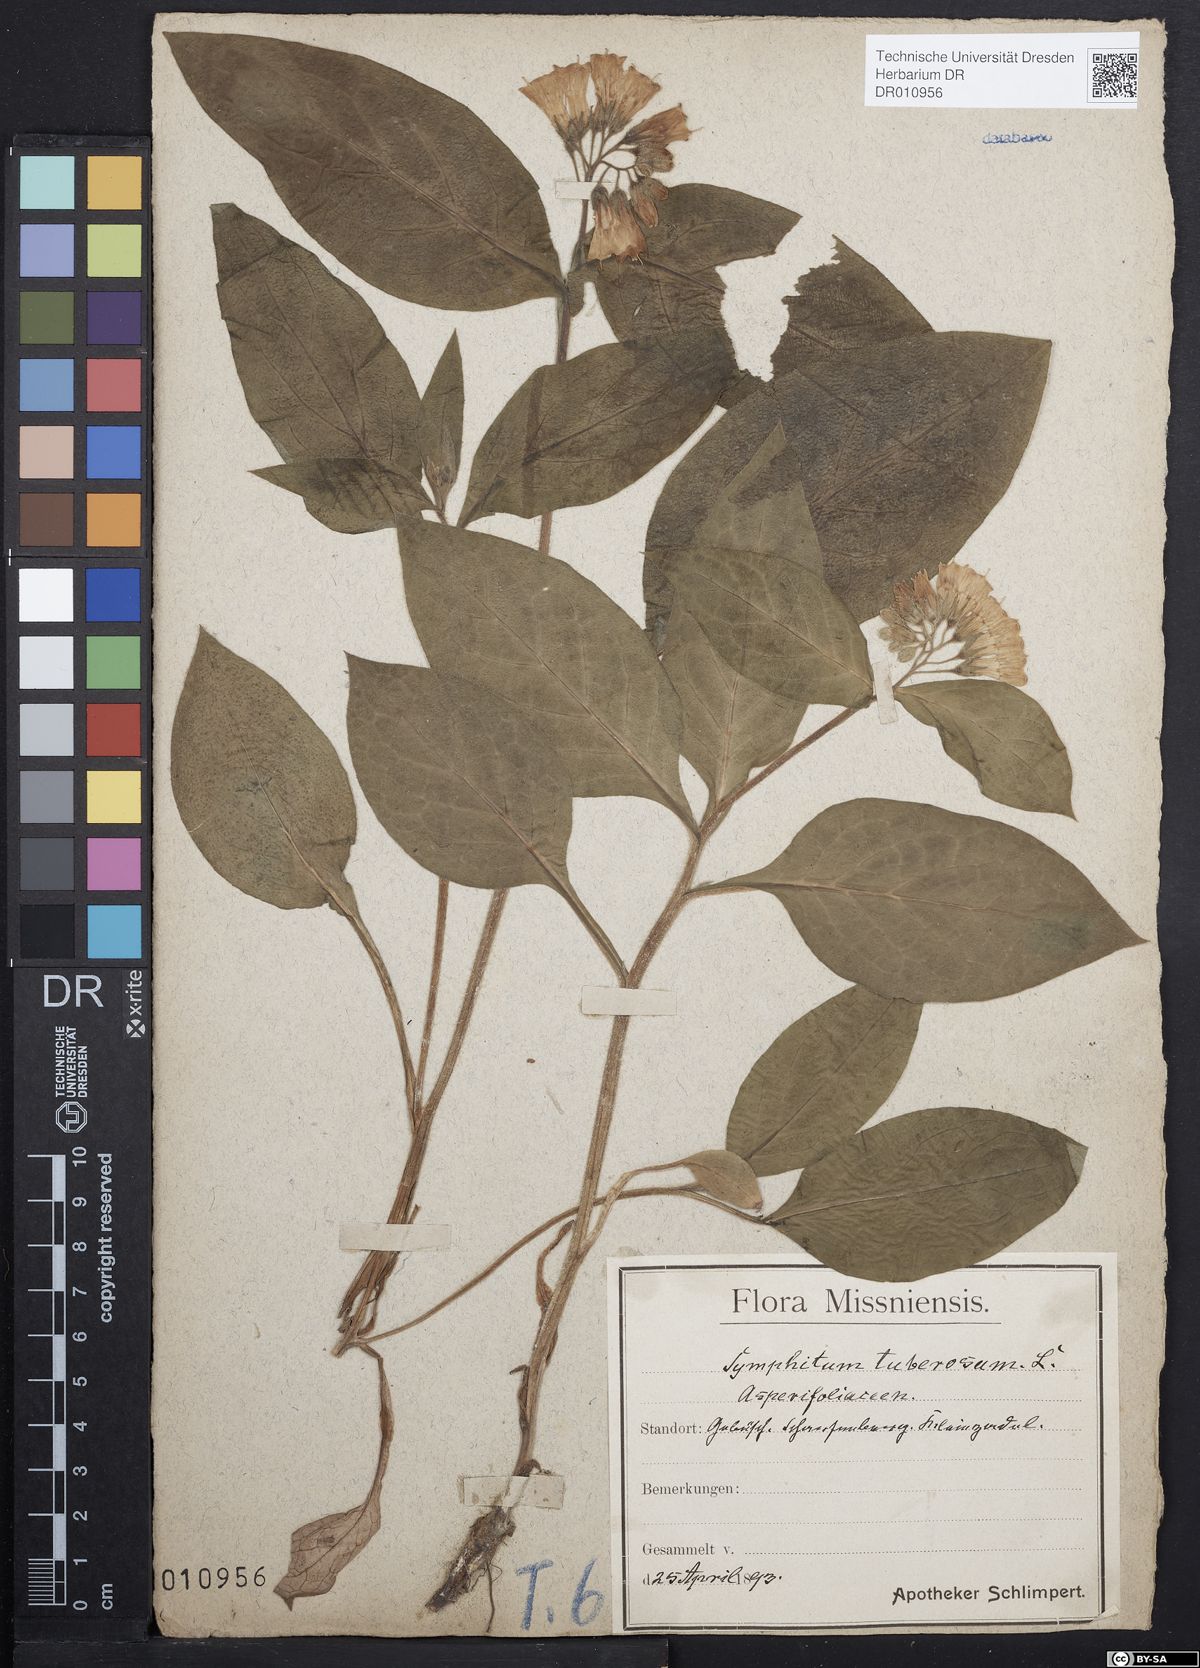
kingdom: Plantae
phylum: Tracheophyta
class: Magnoliopsida
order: Boraginales
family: Boraginaceae
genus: Symphytum
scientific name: Symphytum tuberosum
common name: Tuberous comfrey
